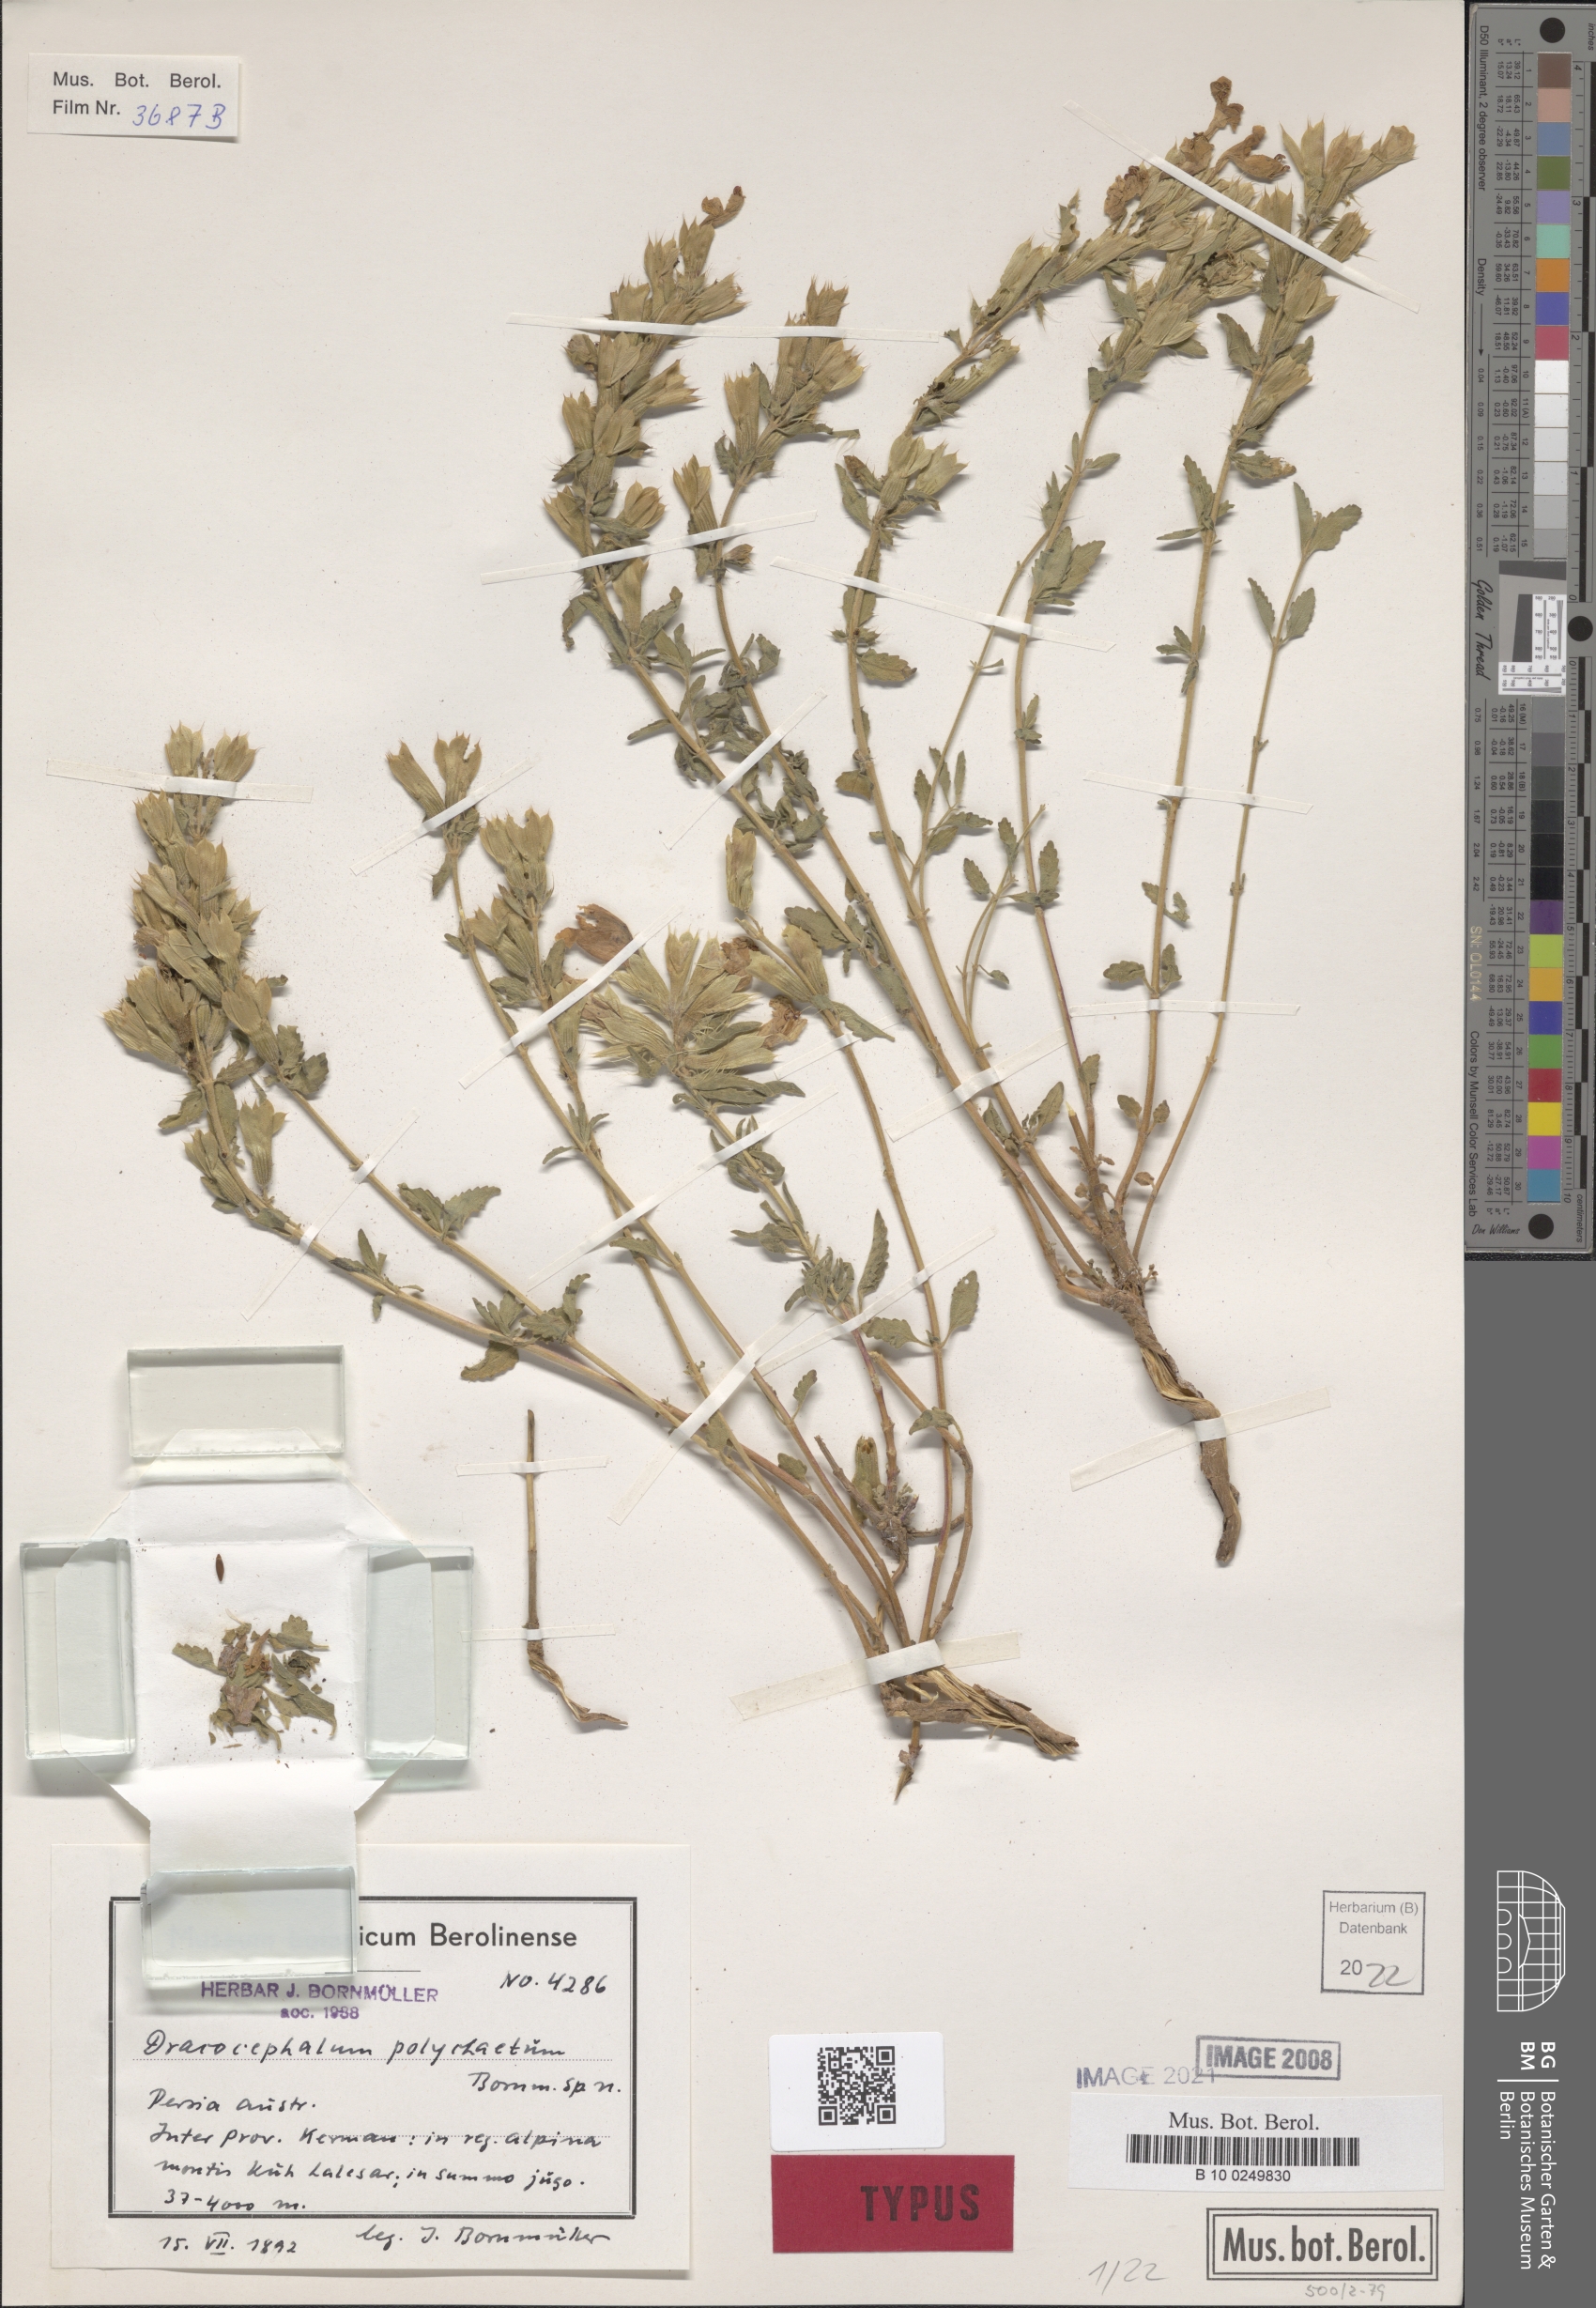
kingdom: Plantae
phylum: Tracheophyta
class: Magnoliopsida
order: Lamiales
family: Lamiaceae
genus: Dracocephalum
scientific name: Dracocephalum polychaetum
